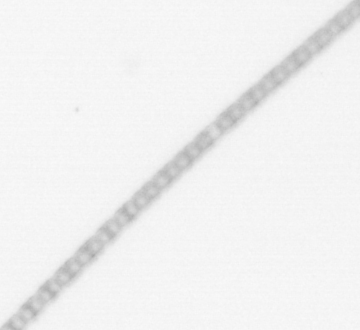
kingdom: Chromista
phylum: Ochrophyta
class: Bacillariophyceae
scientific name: Bacillariophyceae
